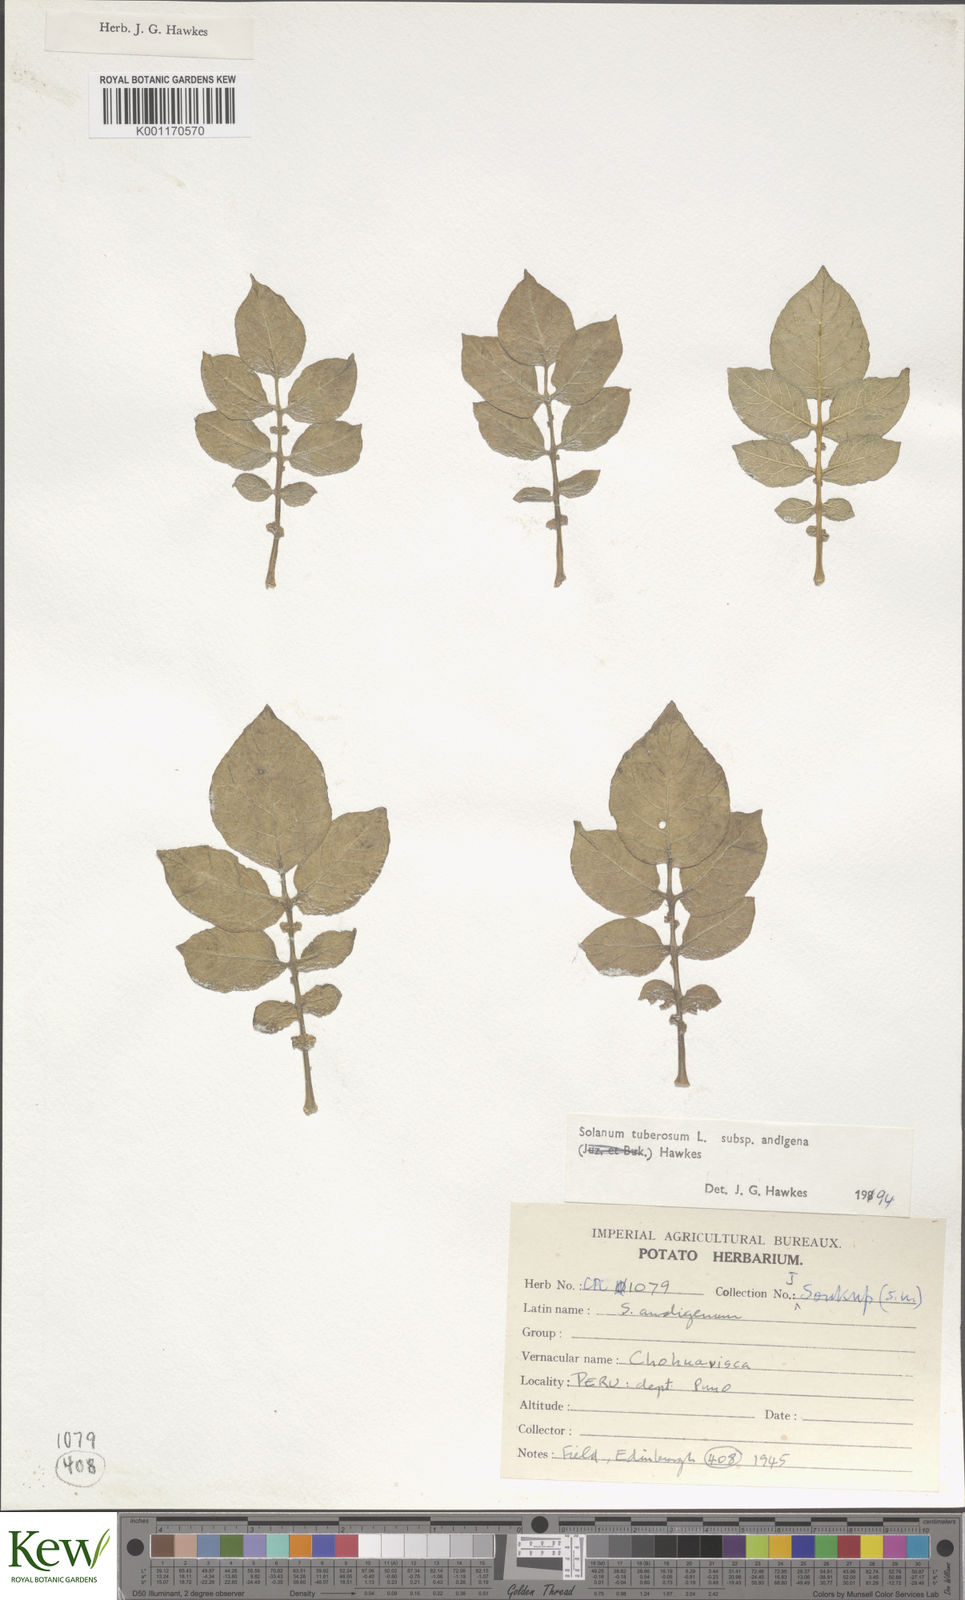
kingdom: Plantae
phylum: Tracheophyta
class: Magnoliopsida
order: Solanales
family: Solanaceae
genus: Solanum
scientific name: Solanum tuberosum
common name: Potato
